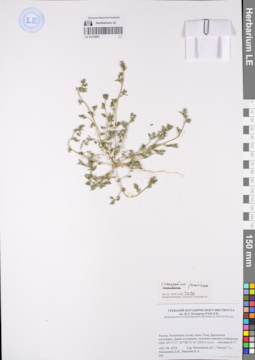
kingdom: Plantae
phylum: Tracheophyta
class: Magnoliopsida
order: Caryophyllales
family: Amaranthaceae
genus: Chenopodium
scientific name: Chenopodium pamiricum
